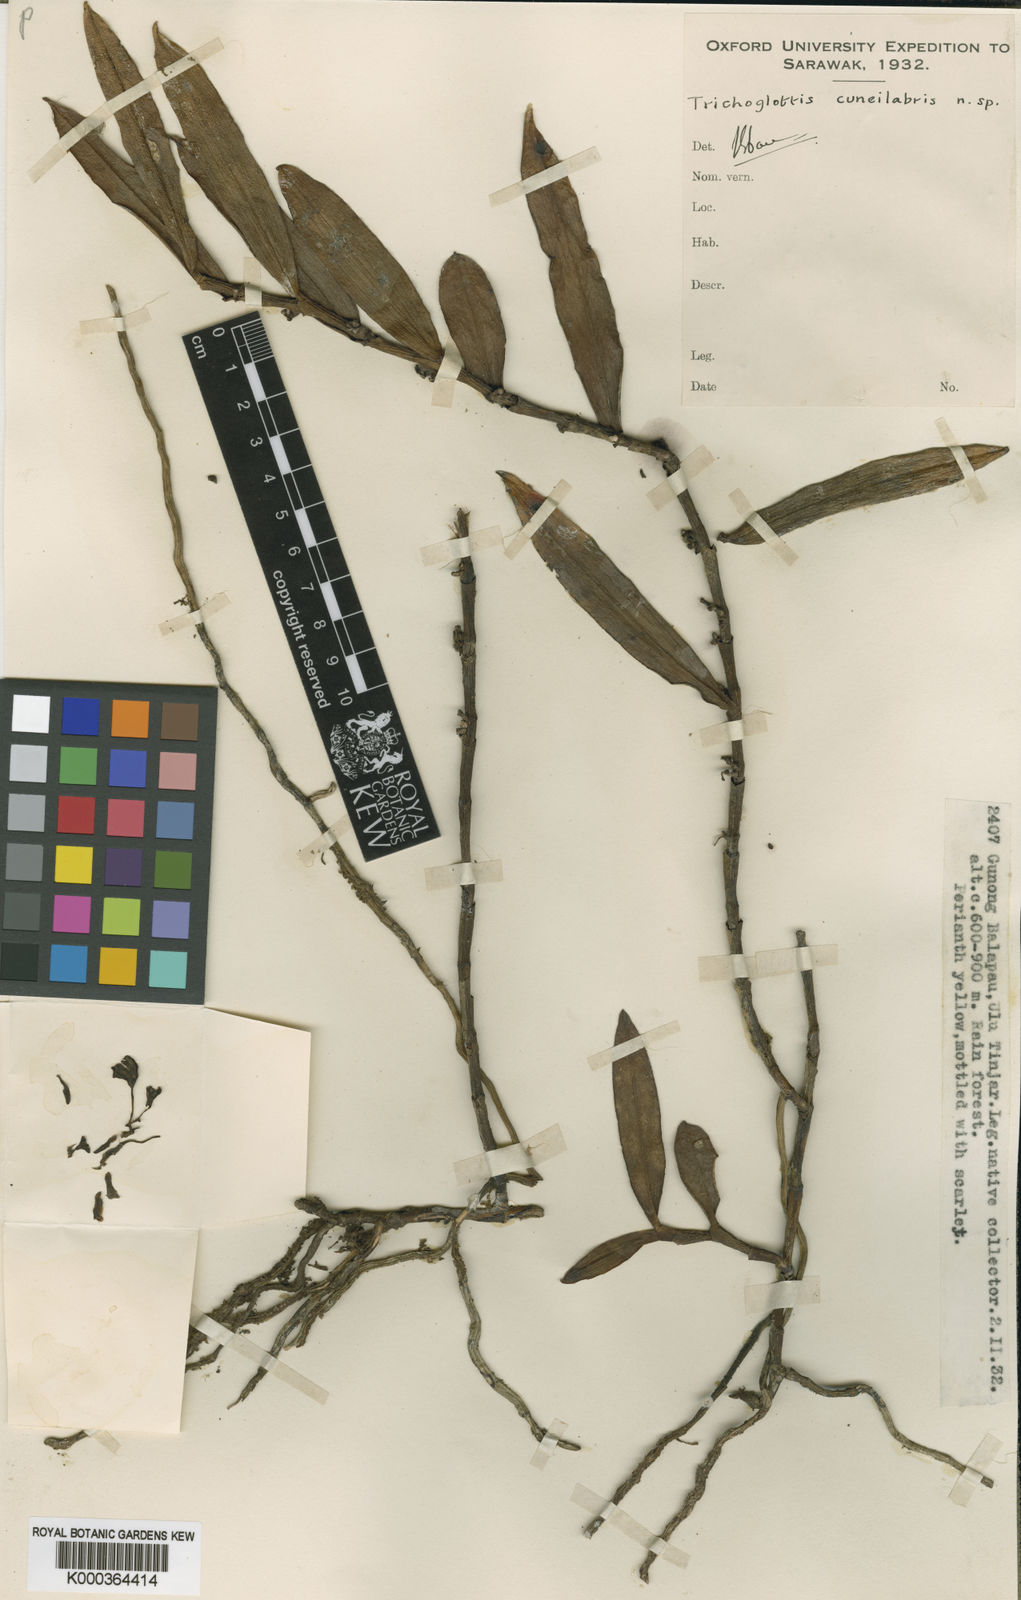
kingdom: Plantae
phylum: Tracheophyta
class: Liliopsida
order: Asparagales
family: Orchidaceae
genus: Trichoglottis
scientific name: Trichoglottis cuneilabris
